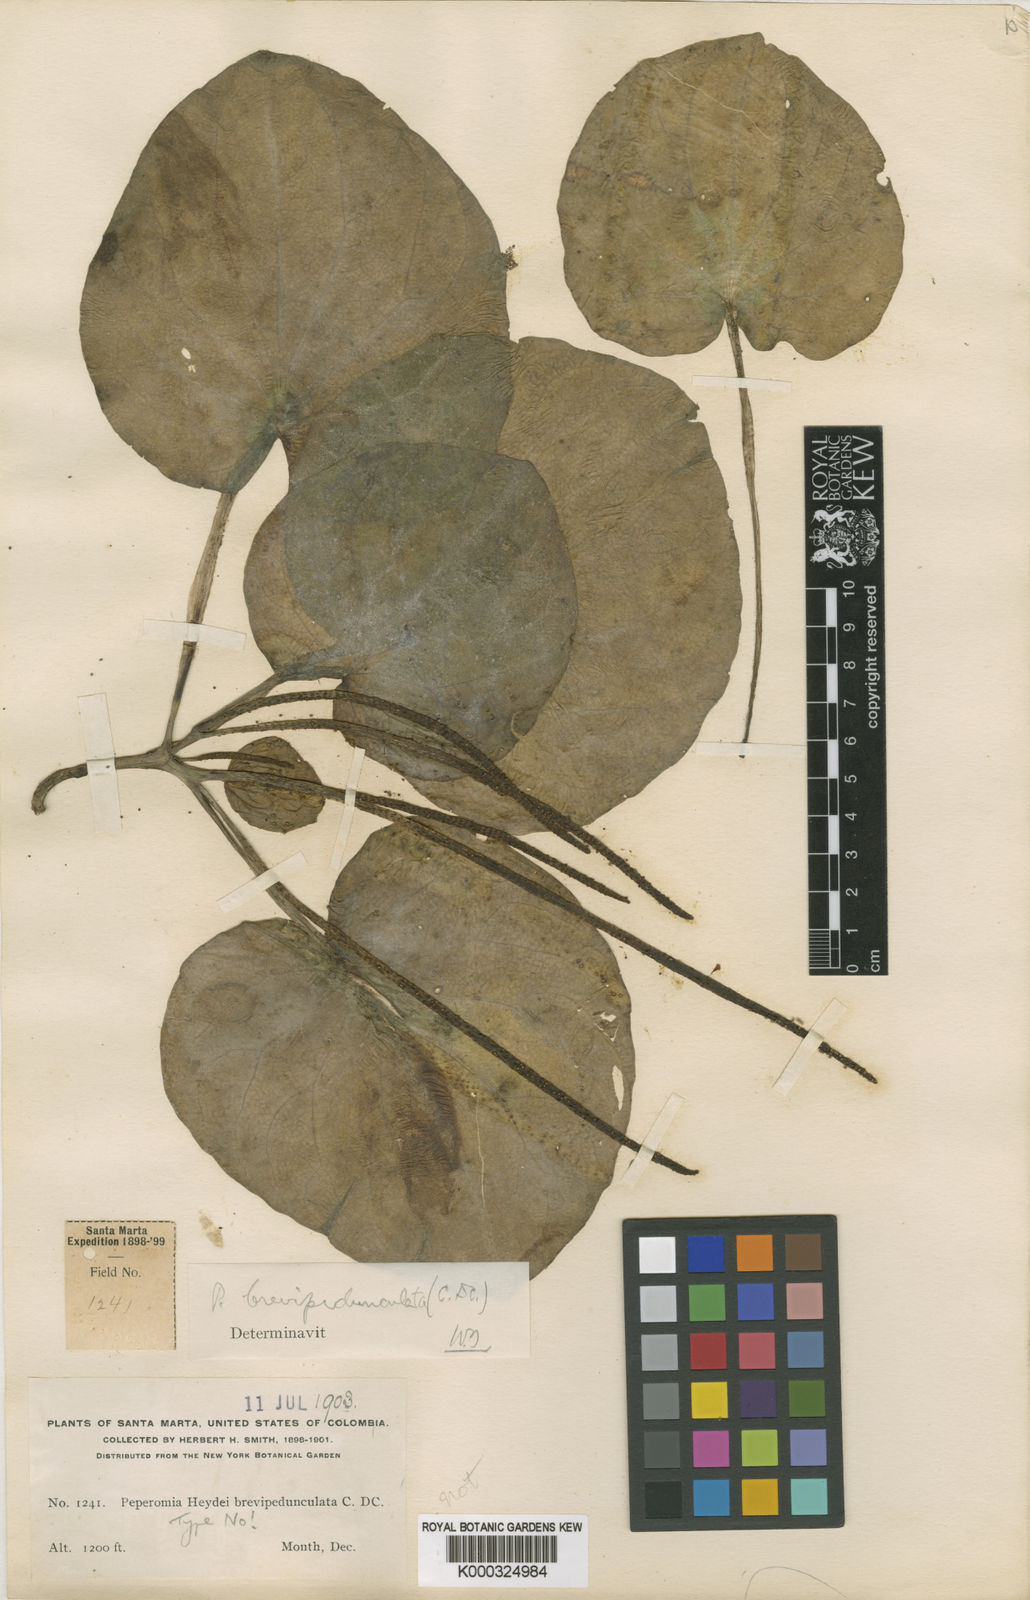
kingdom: Plantae
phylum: Tracheophyta
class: Magnoliopsida
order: Piperales
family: Piperaceae
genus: Peperomia
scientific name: Peperomia asarifolia
